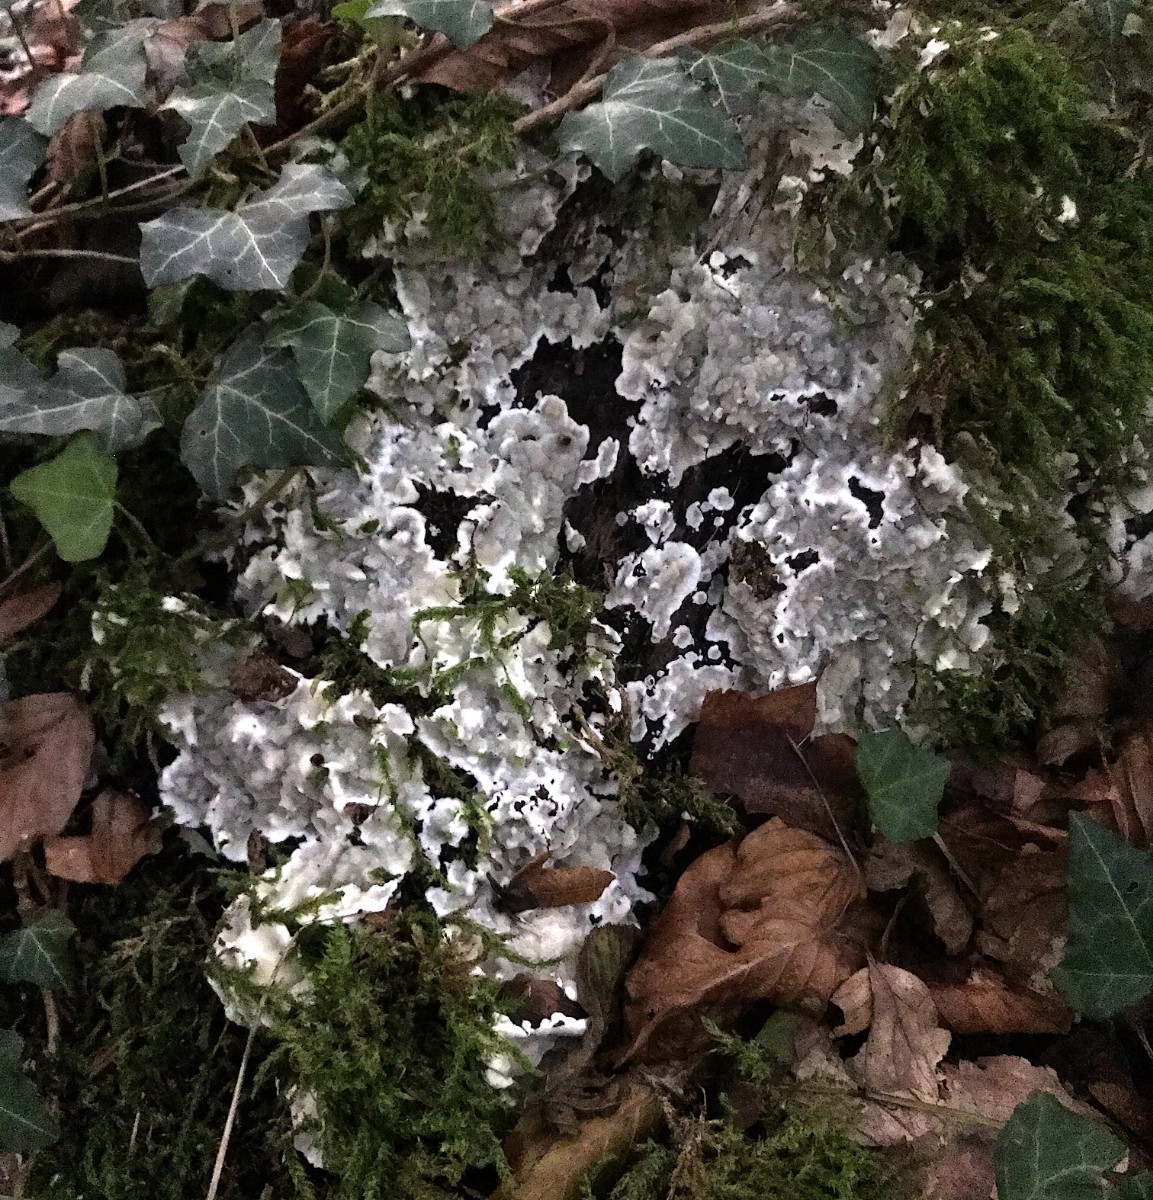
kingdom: Fungi
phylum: Basidiomycota
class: Agaricomycetes
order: Polyporales
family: Meruliaceae
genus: Physisporinus
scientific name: Physisporinus vitreus
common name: mastesvamp
